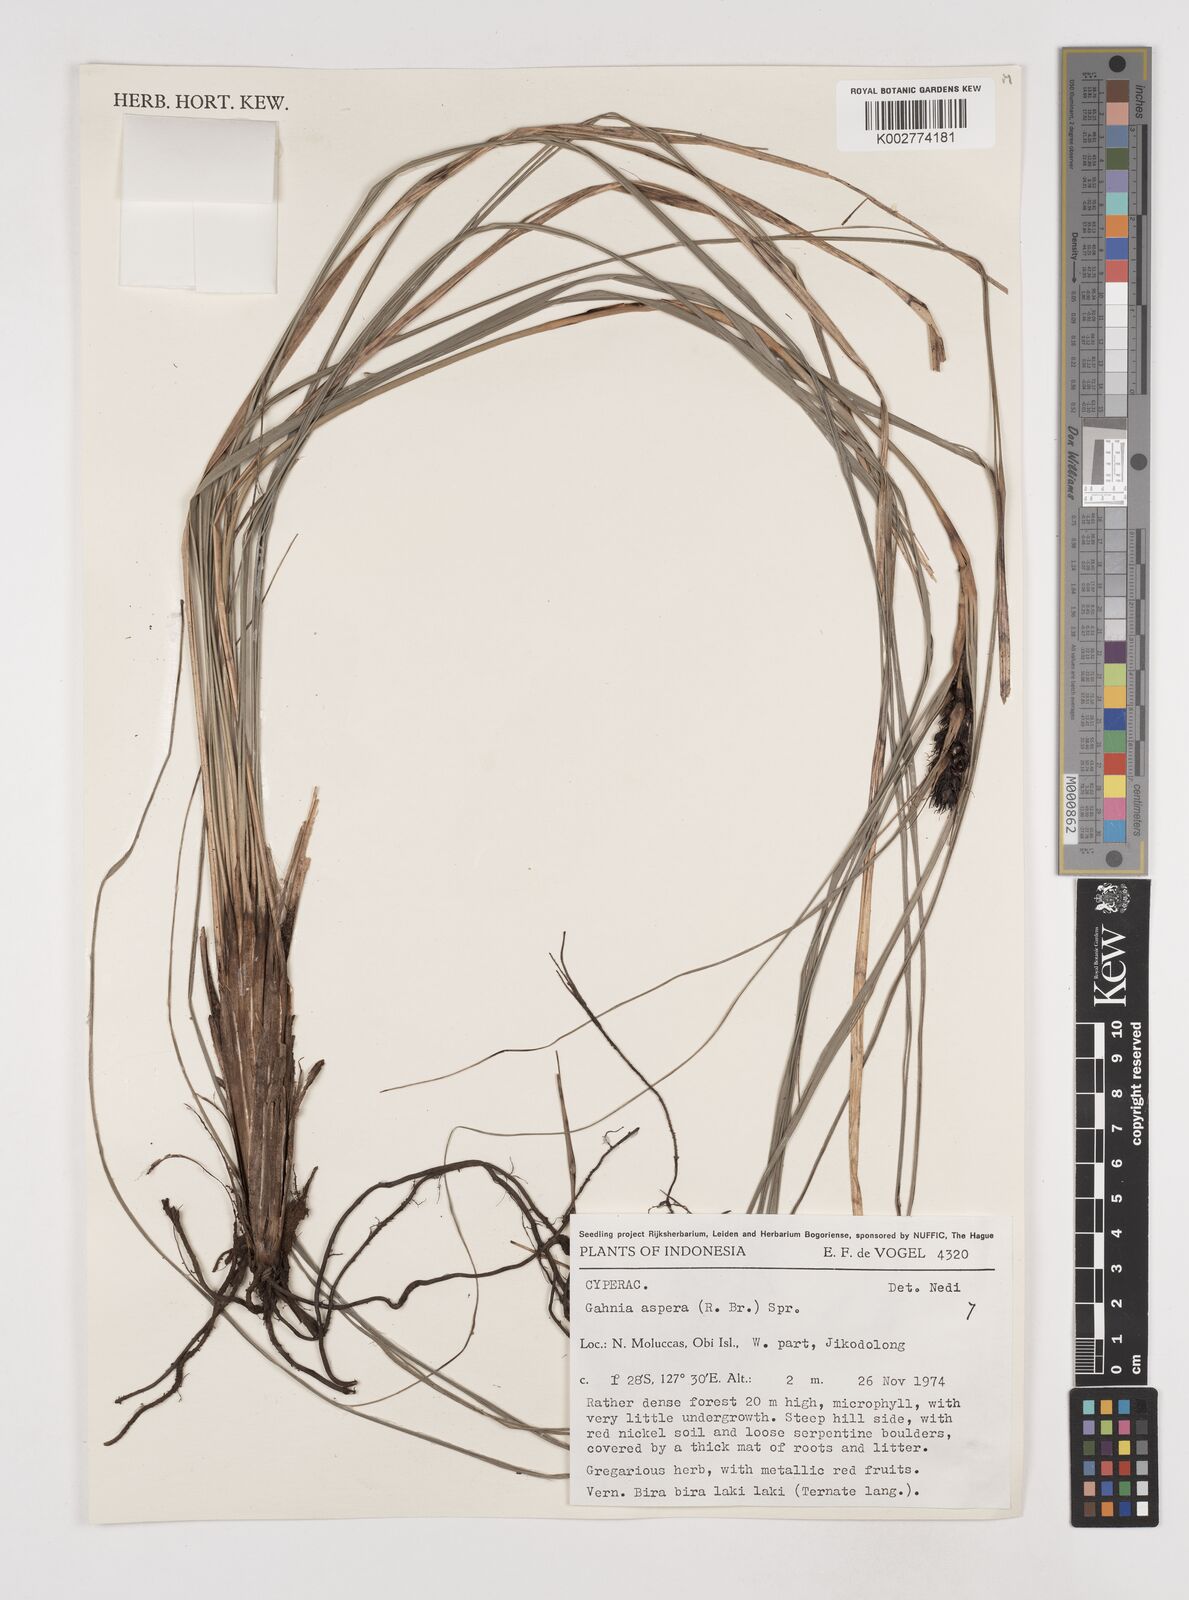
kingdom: Plantae
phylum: Tracheophyta
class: Liliopsida
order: Poales
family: Cyperaceae
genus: Gahnia
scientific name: Gahnia aspera
